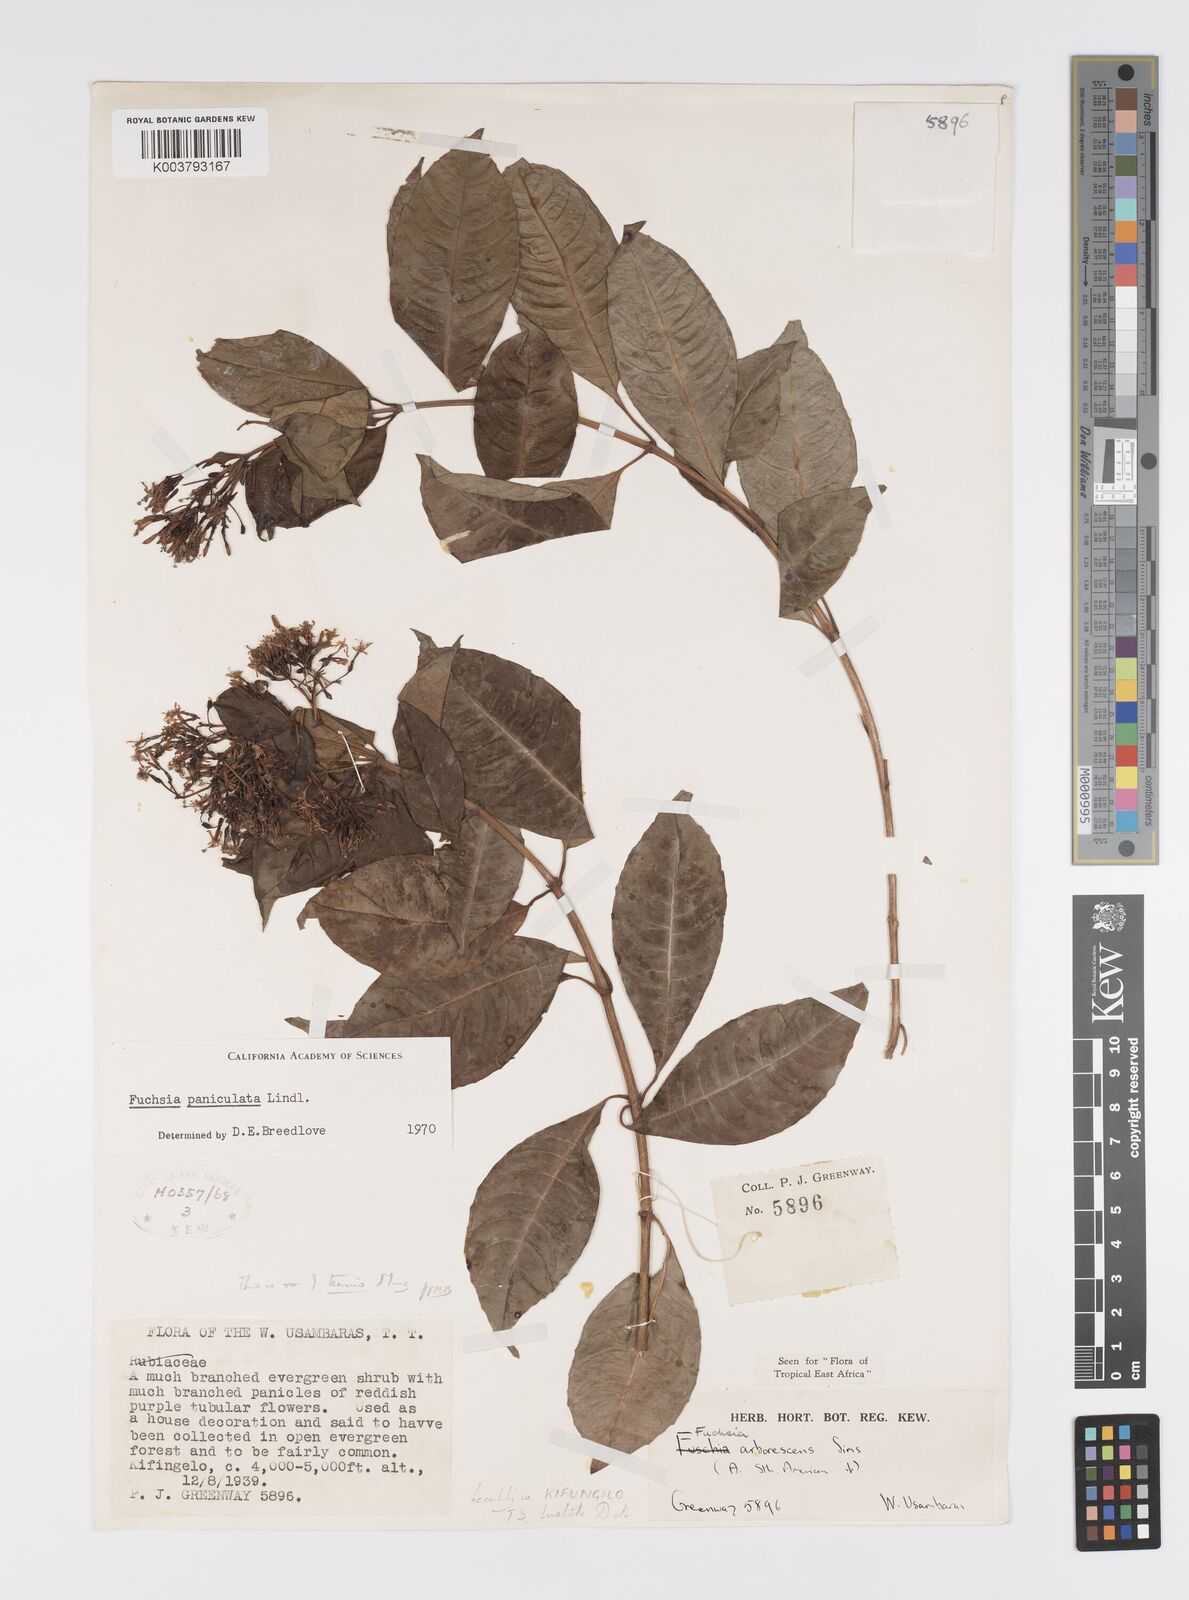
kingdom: Plantae
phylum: Tracheophyta
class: Magnoliopsida
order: Myrtales
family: Onagraceae
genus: Fuchsia
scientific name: Fuchsia paniculata
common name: Shrubby fuchsia
